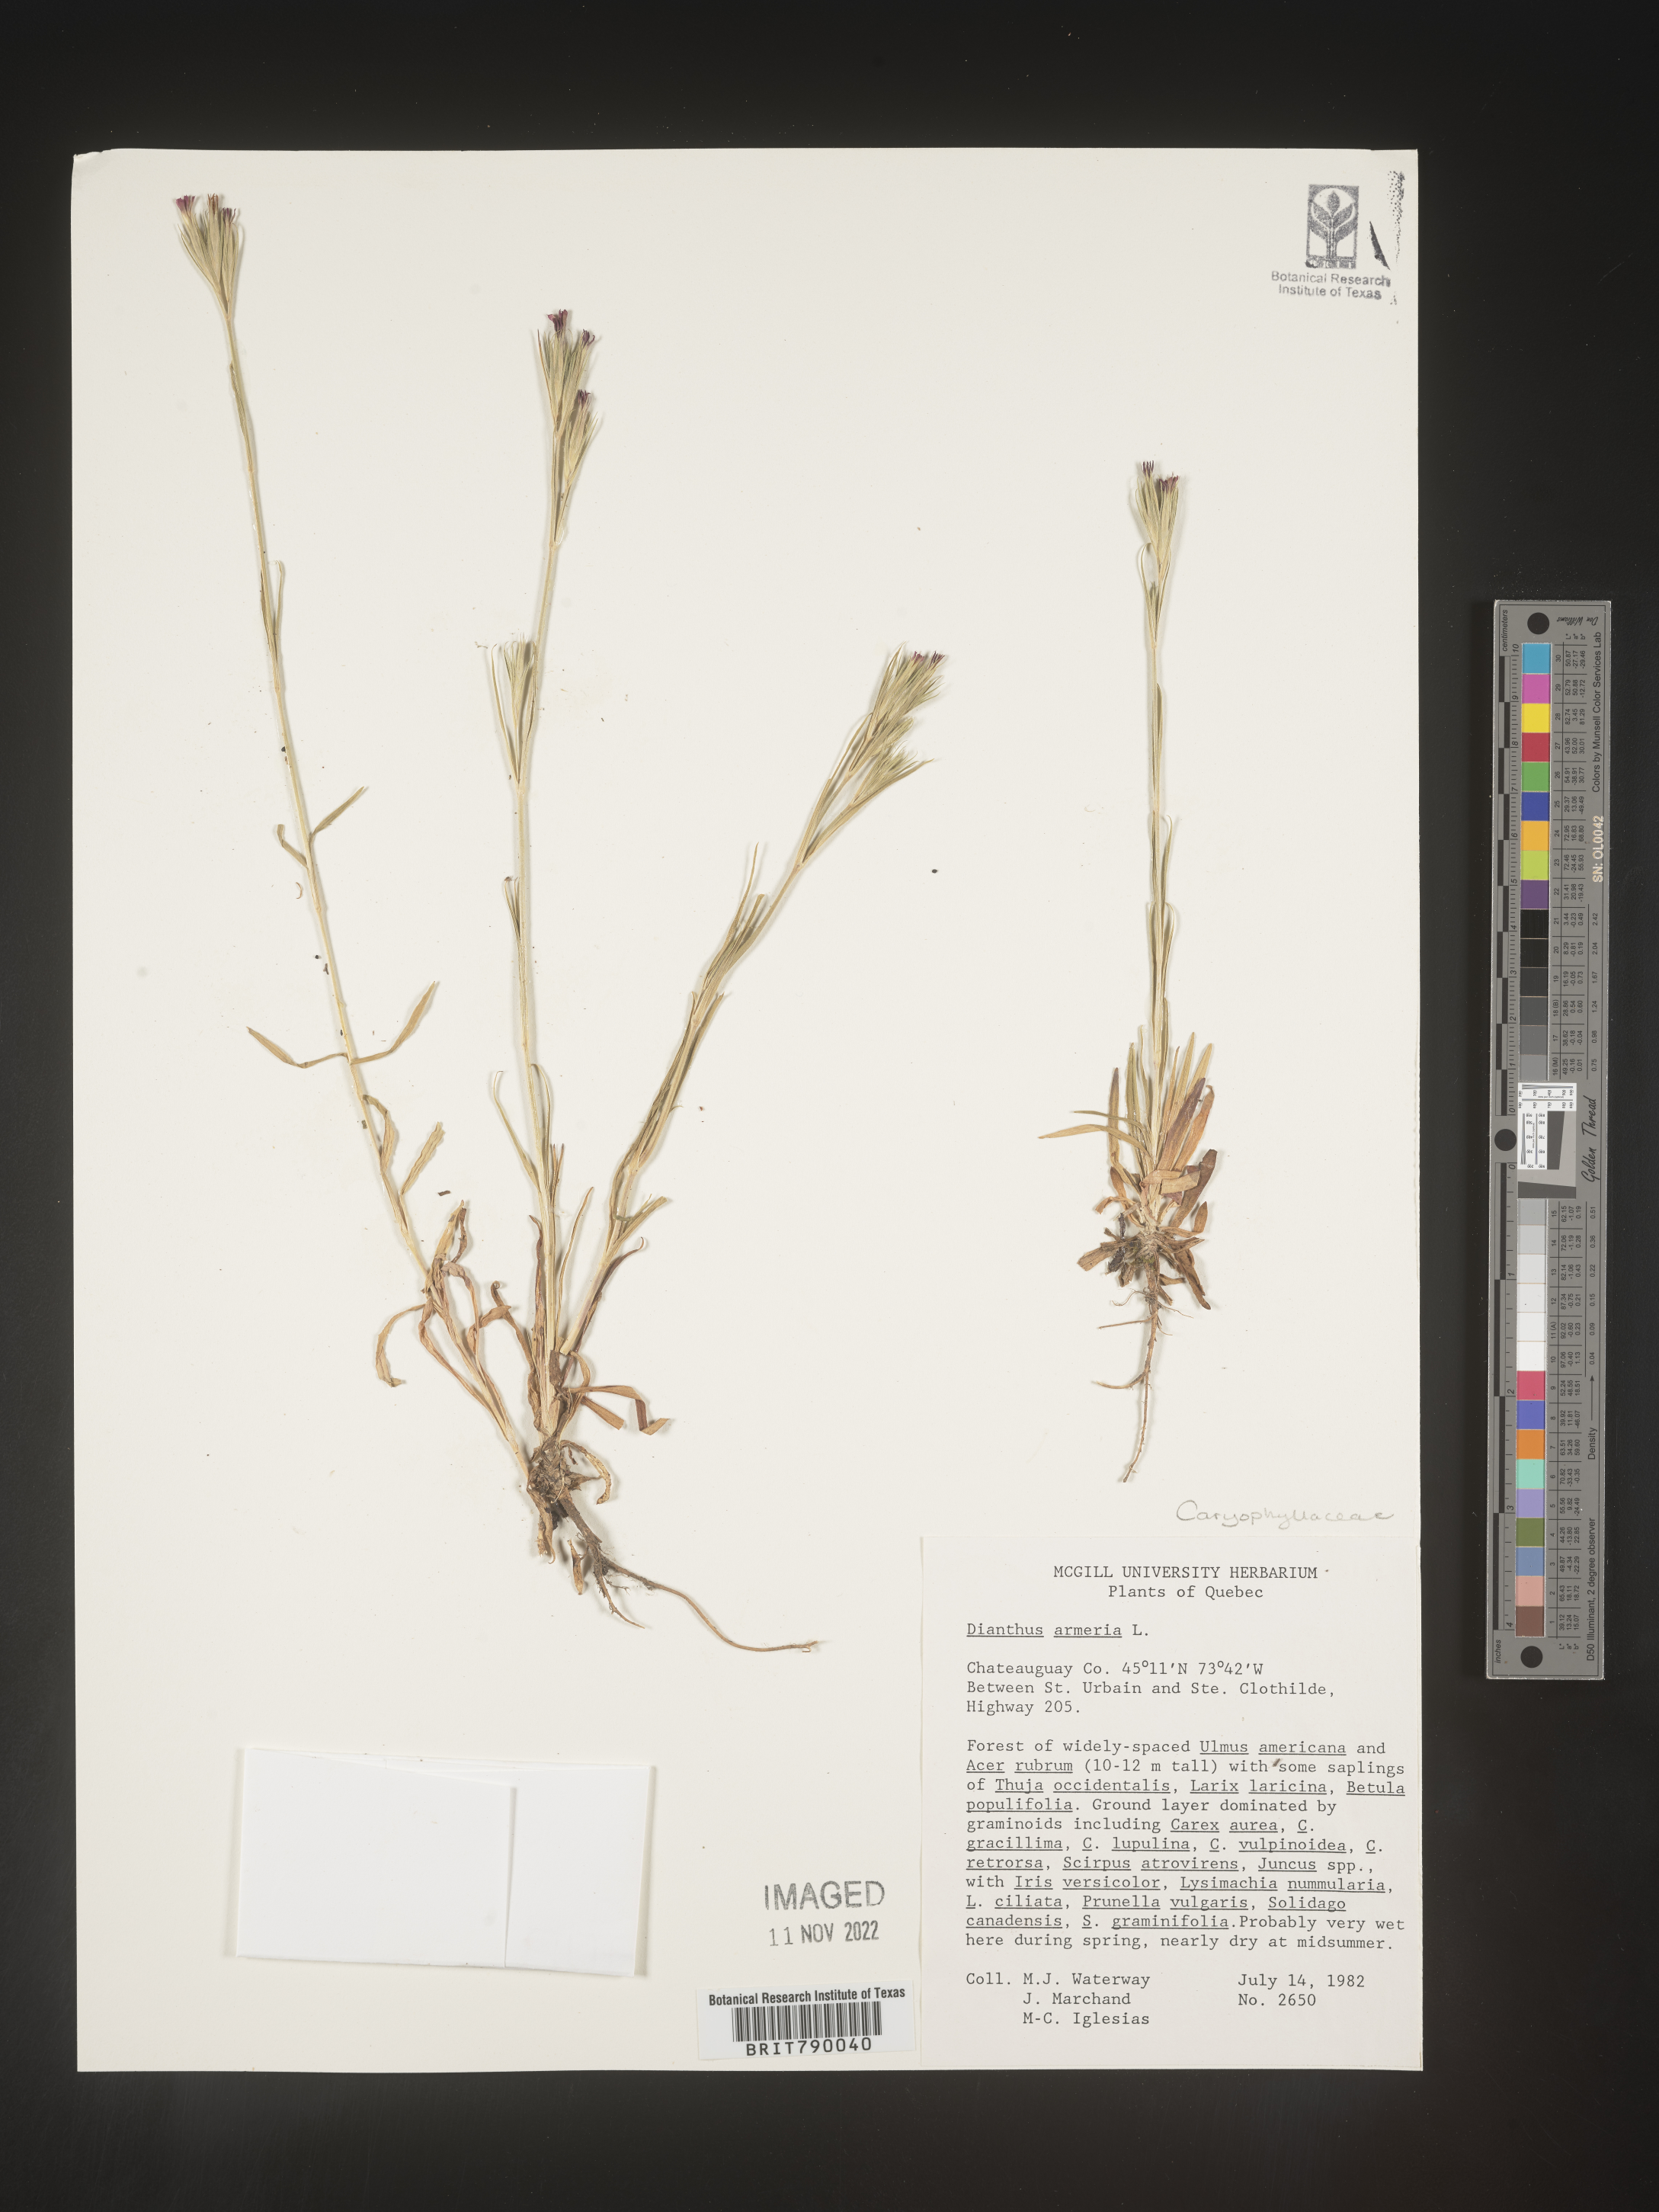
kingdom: Plantae
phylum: Tracheophyta
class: Magnoliopsida
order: Caryophyllales
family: Caryophyllaceae
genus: Dianthus
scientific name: Dianthus armeria
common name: Deptford pink
